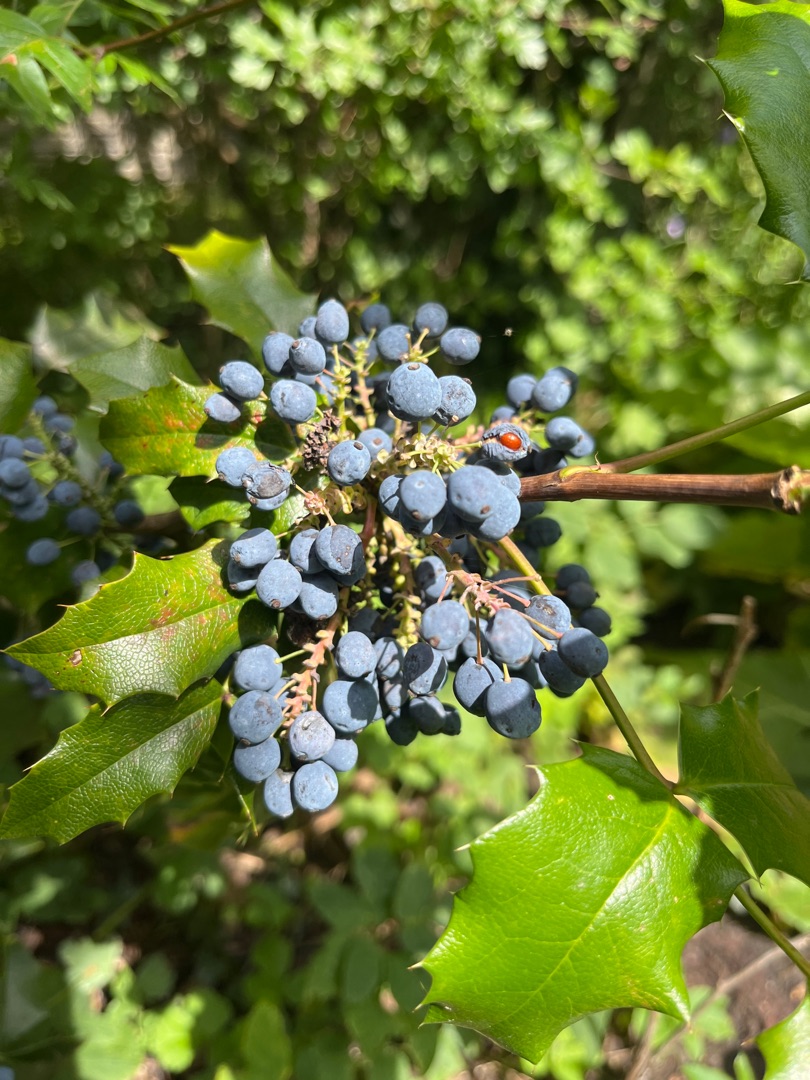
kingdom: Plantae
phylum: Tracheophyta
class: Magnoliopsida
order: Ranunculales
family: Berberidaceae
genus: Mahonia
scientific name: Mahonia aquifolium
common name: Almindelig mahonie
